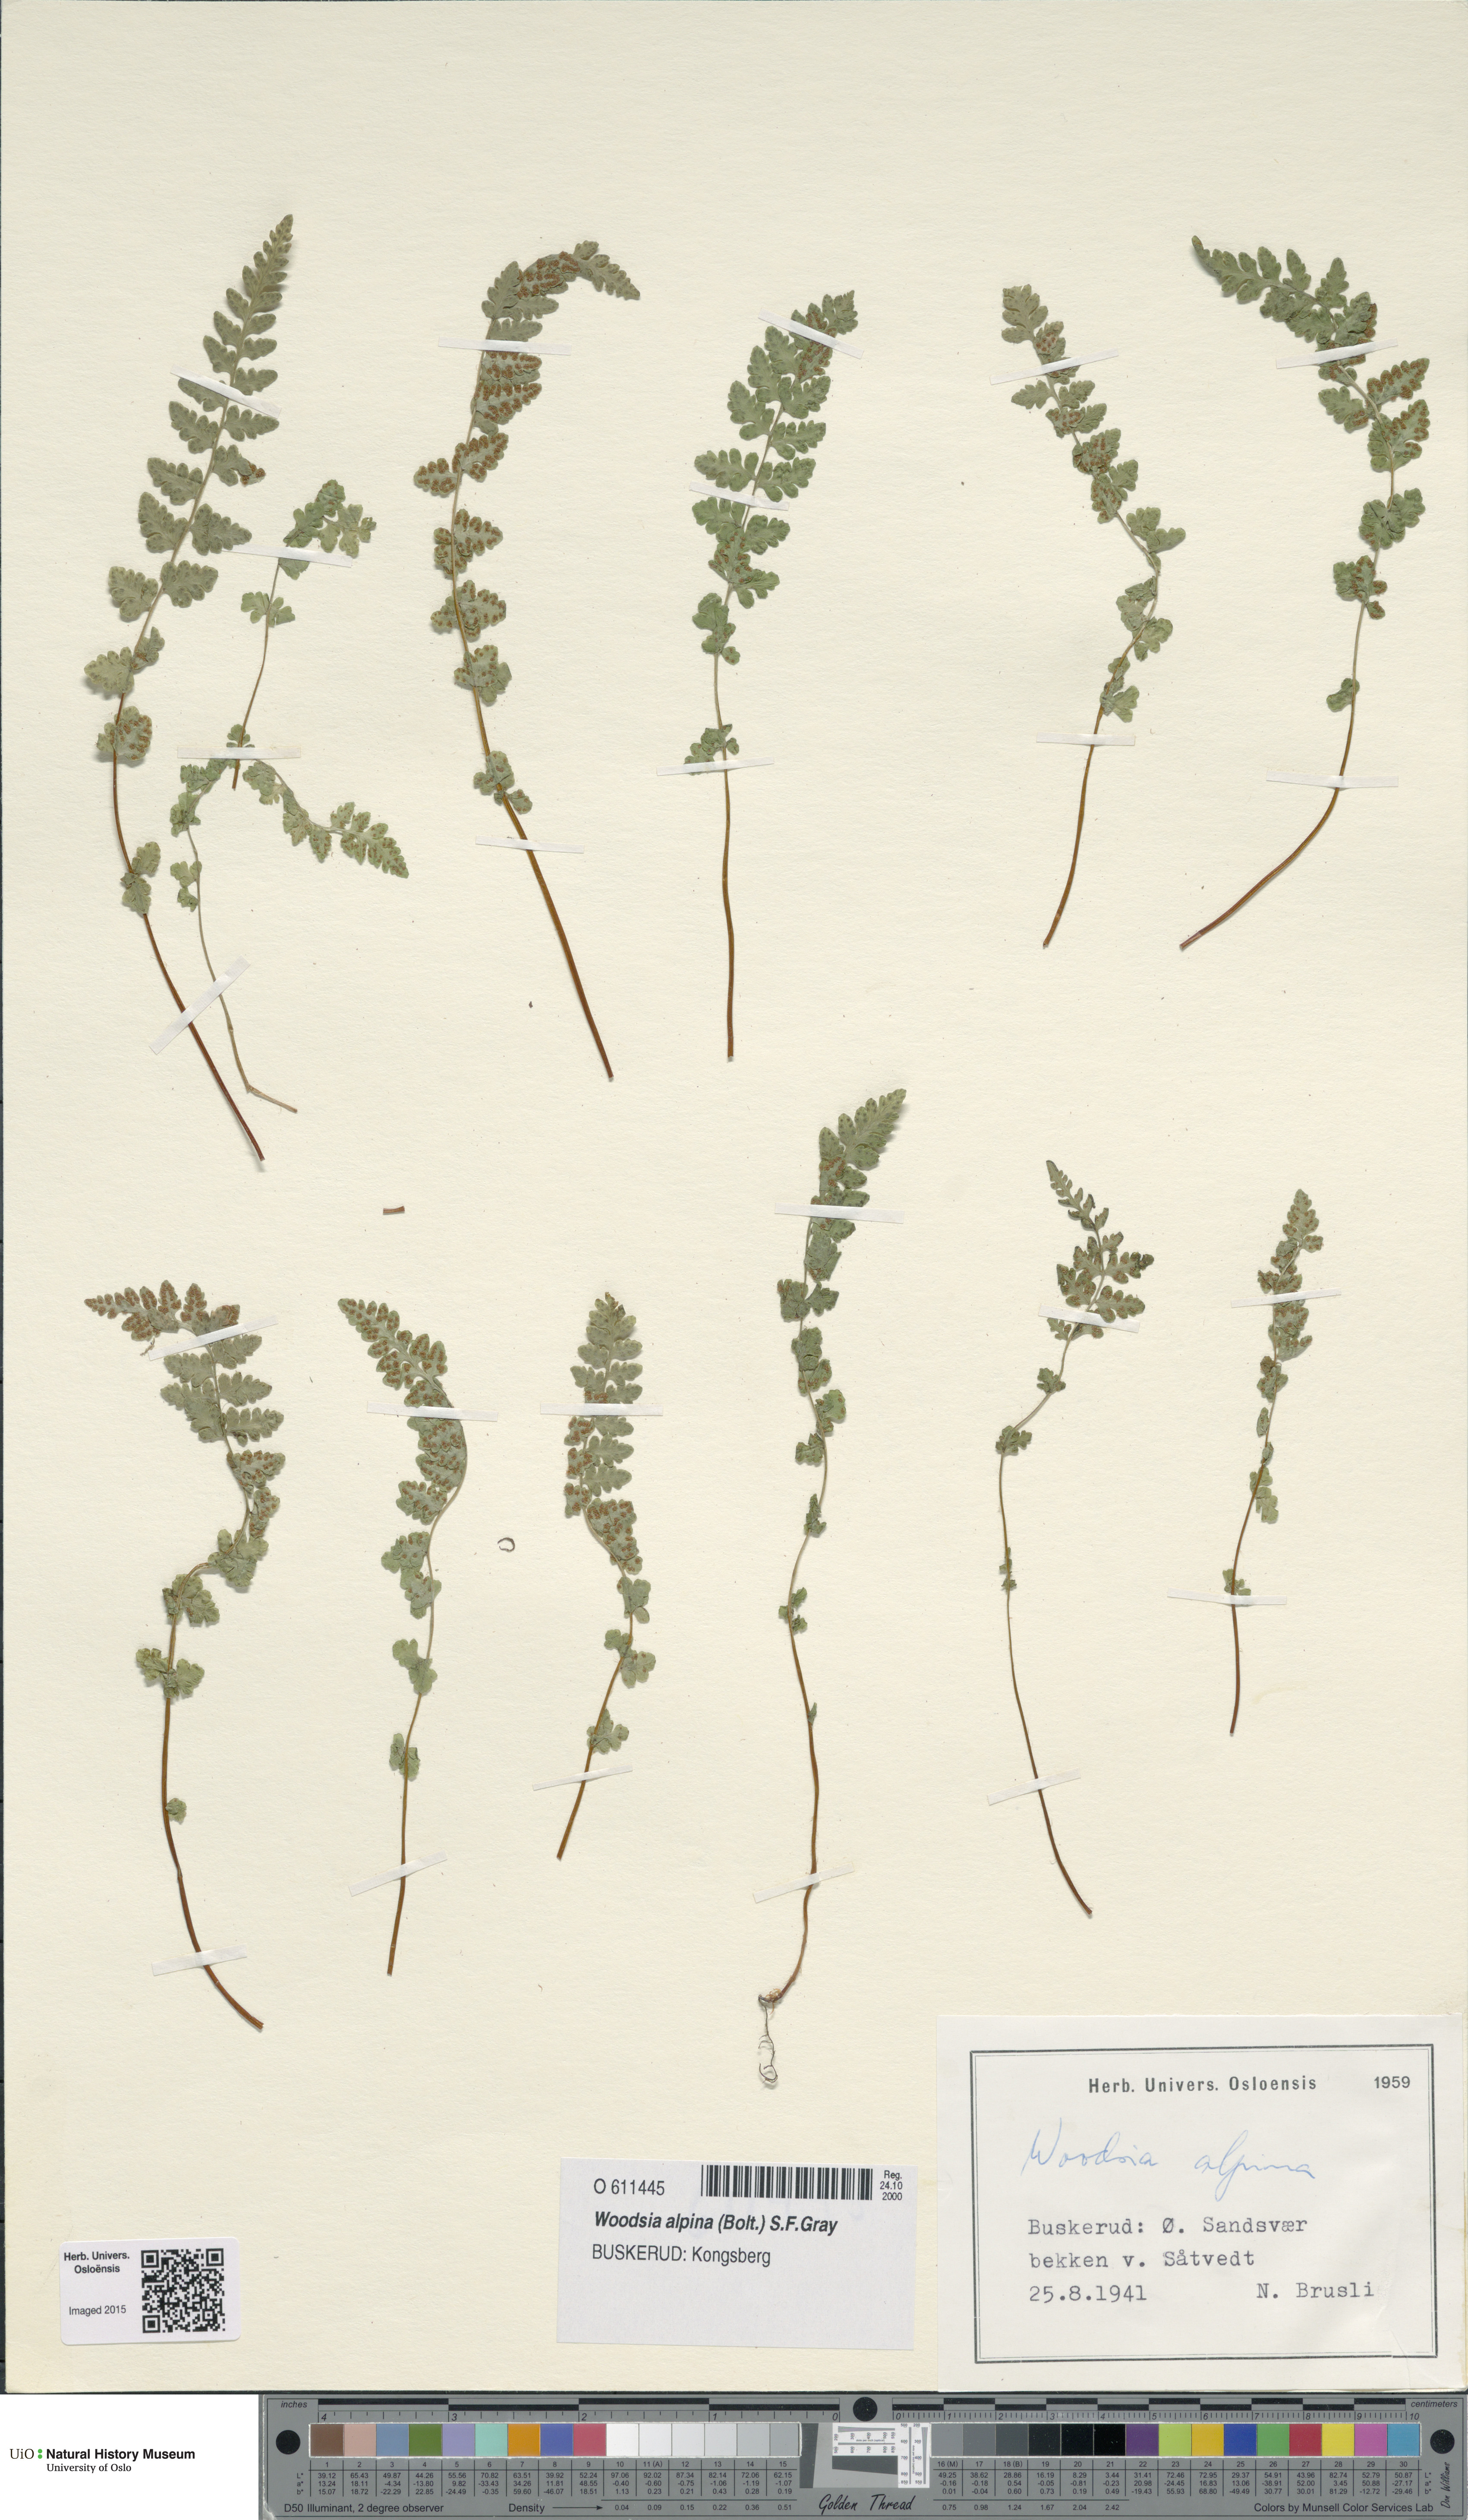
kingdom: Plantae
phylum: Tracheophyta
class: Polypodiopsida
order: Polypodiales
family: Woodsiaceae
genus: Woodsia
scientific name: Woodsia alpina
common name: Alpine woodsia
